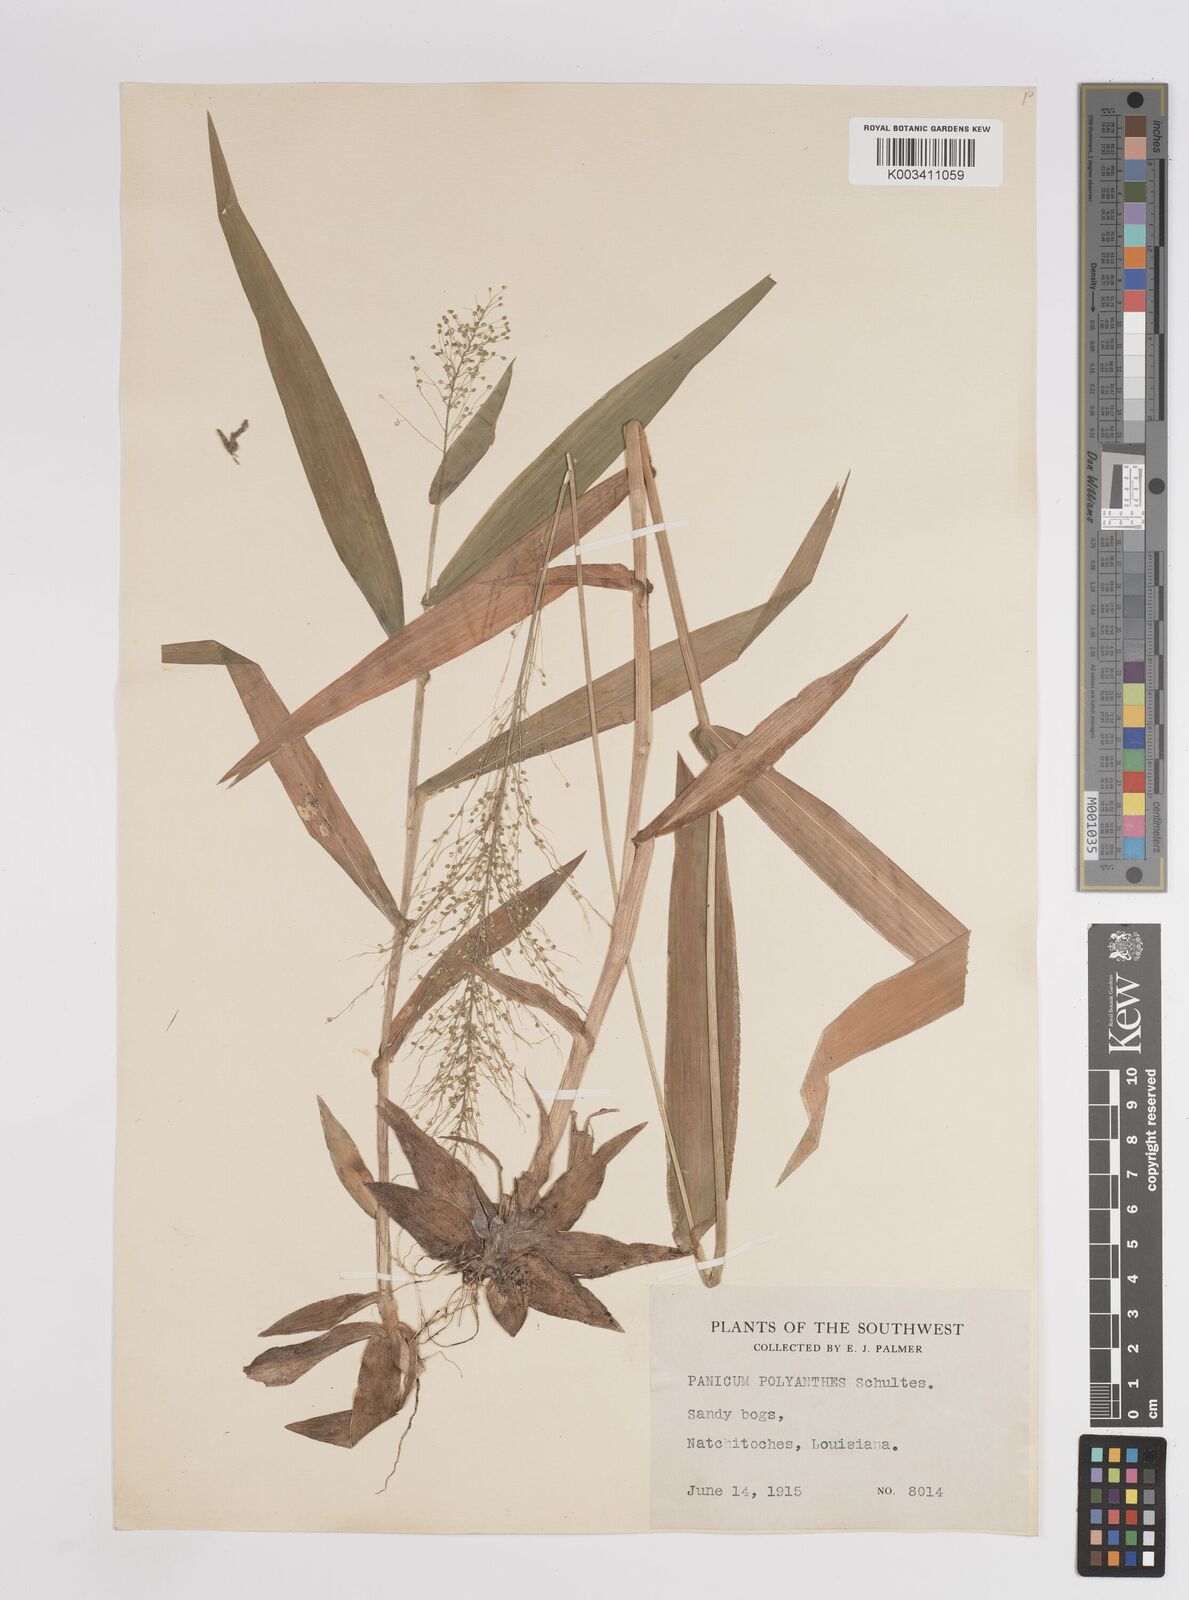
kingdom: Plantae
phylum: Tracheophyta
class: Liliopsida
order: Poales
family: Poaceae
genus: Dichanthelium
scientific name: Dichanthelium polyanthes
